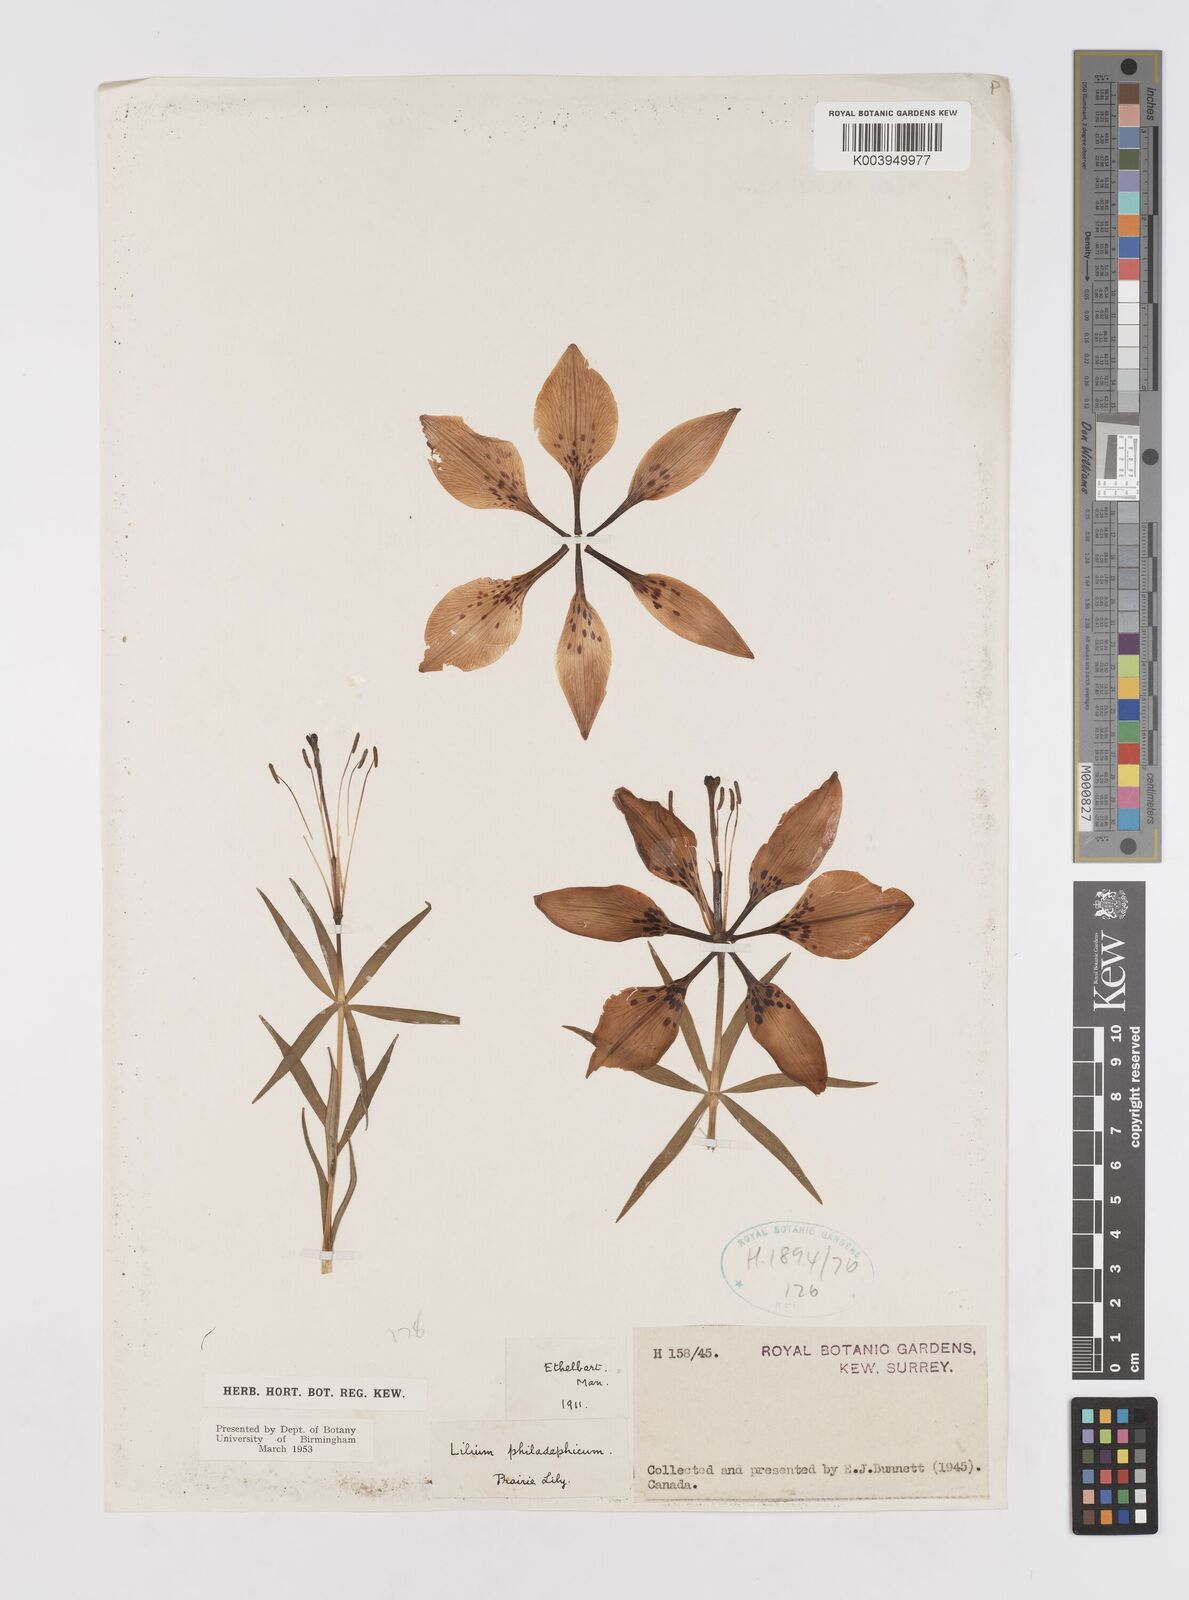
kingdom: Plantae
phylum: Tracheophyta
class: Liliopsida
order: Liliales
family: Liliaceae
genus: Lilium
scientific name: Lilium philadelphicum
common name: Red lily
